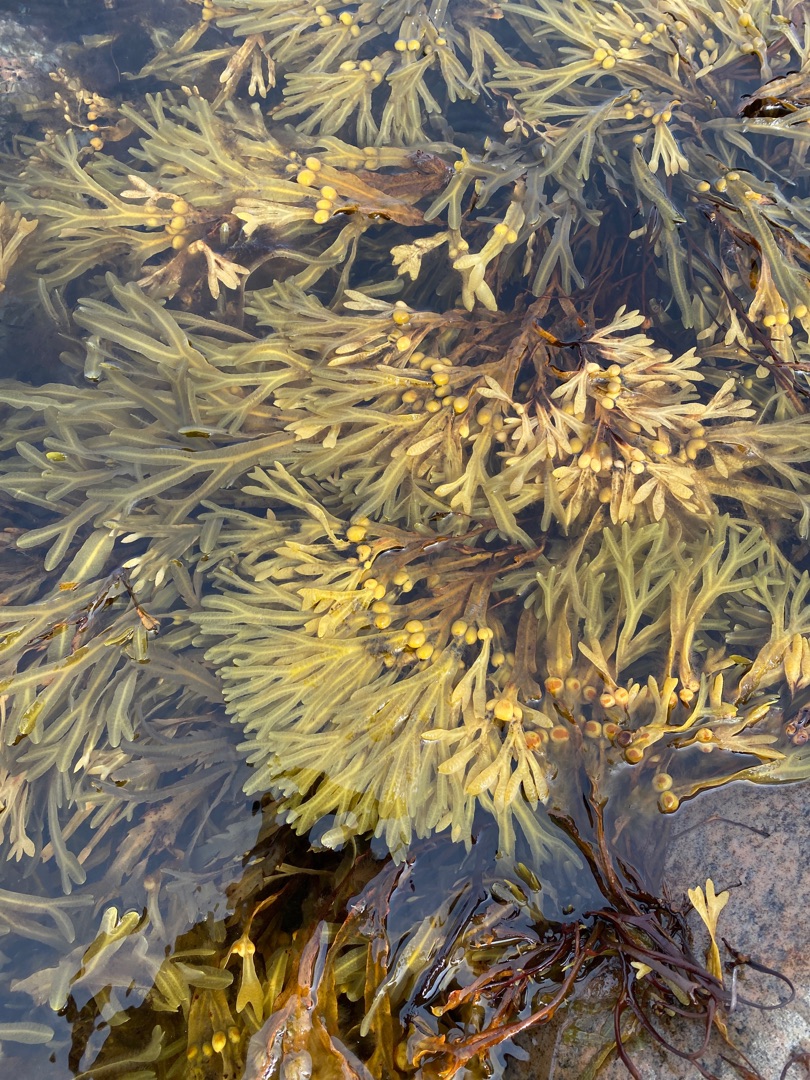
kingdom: Chromista
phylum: Ochrophyta
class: Phaeophyceae
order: Fucales
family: Fucaceae
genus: Fucus
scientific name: Fucus vesiculosus
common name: Blæretang
